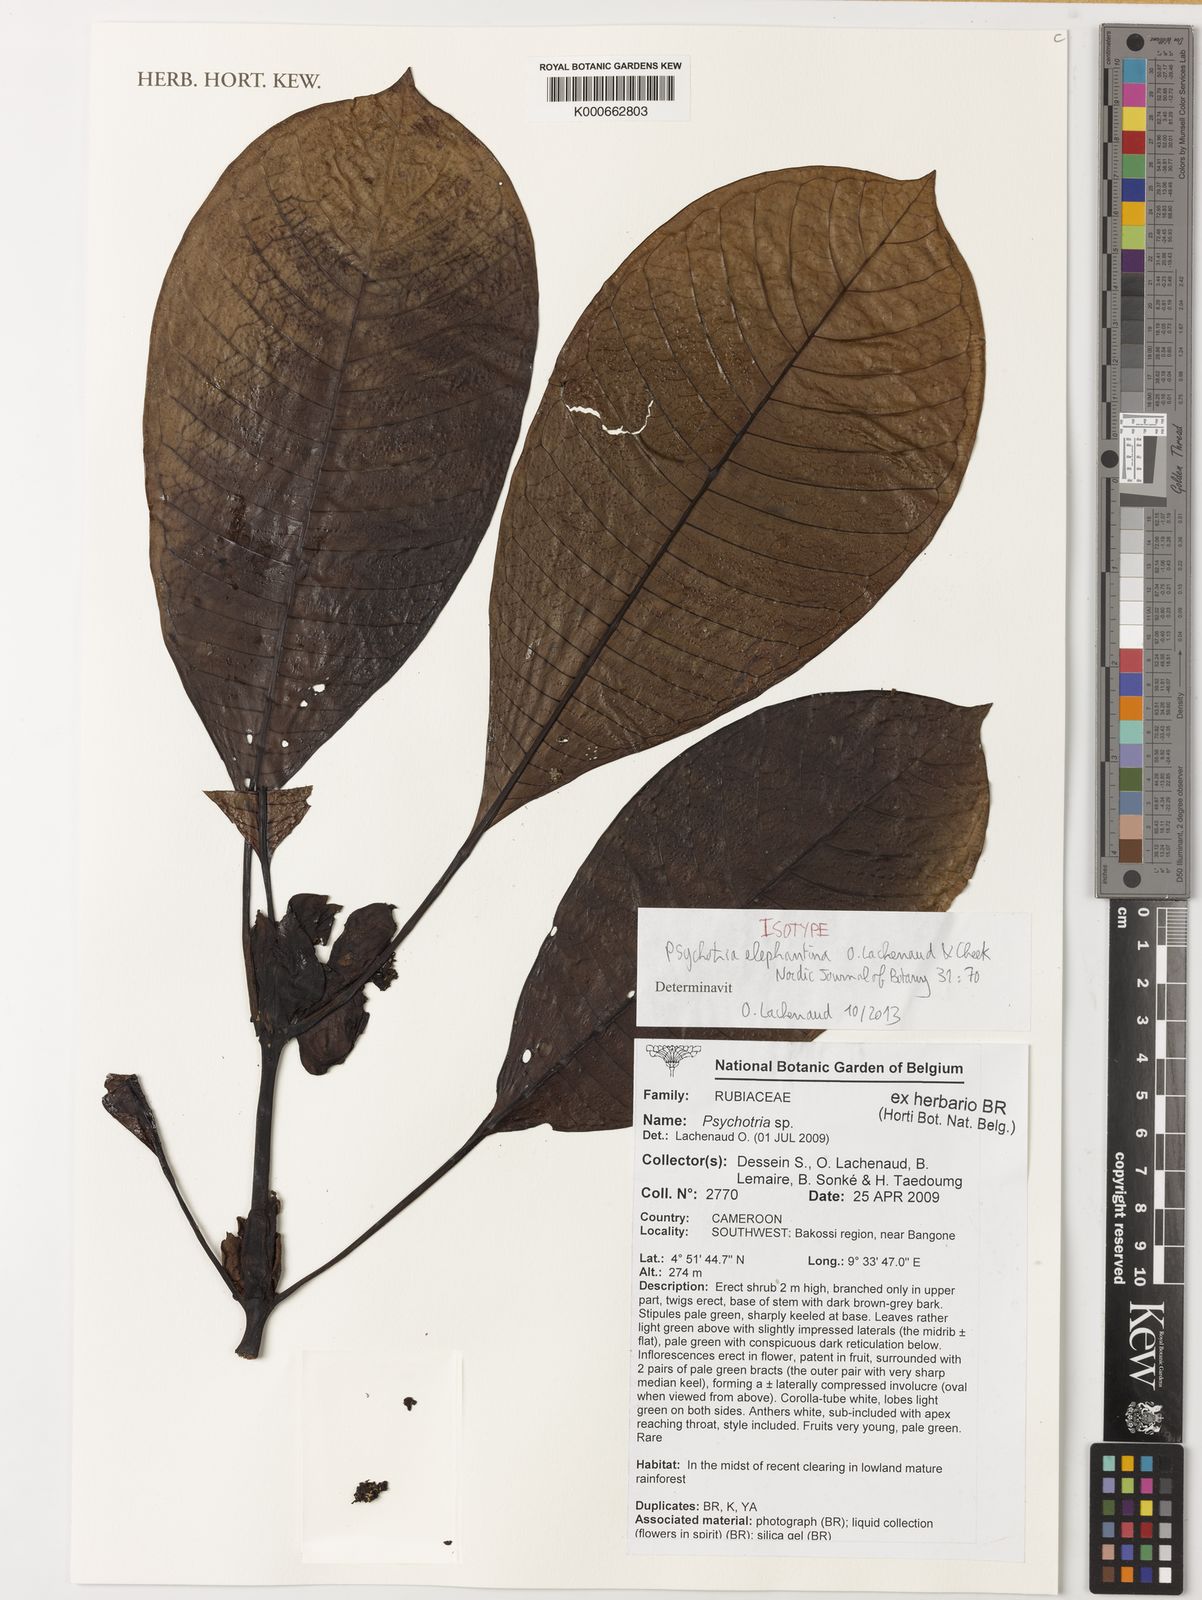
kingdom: Plantae
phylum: Tracheophyta
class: Magnoliopsida
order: Gentianales
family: Rubiaceae
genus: Psychotria
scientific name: Psychotria elephantina
